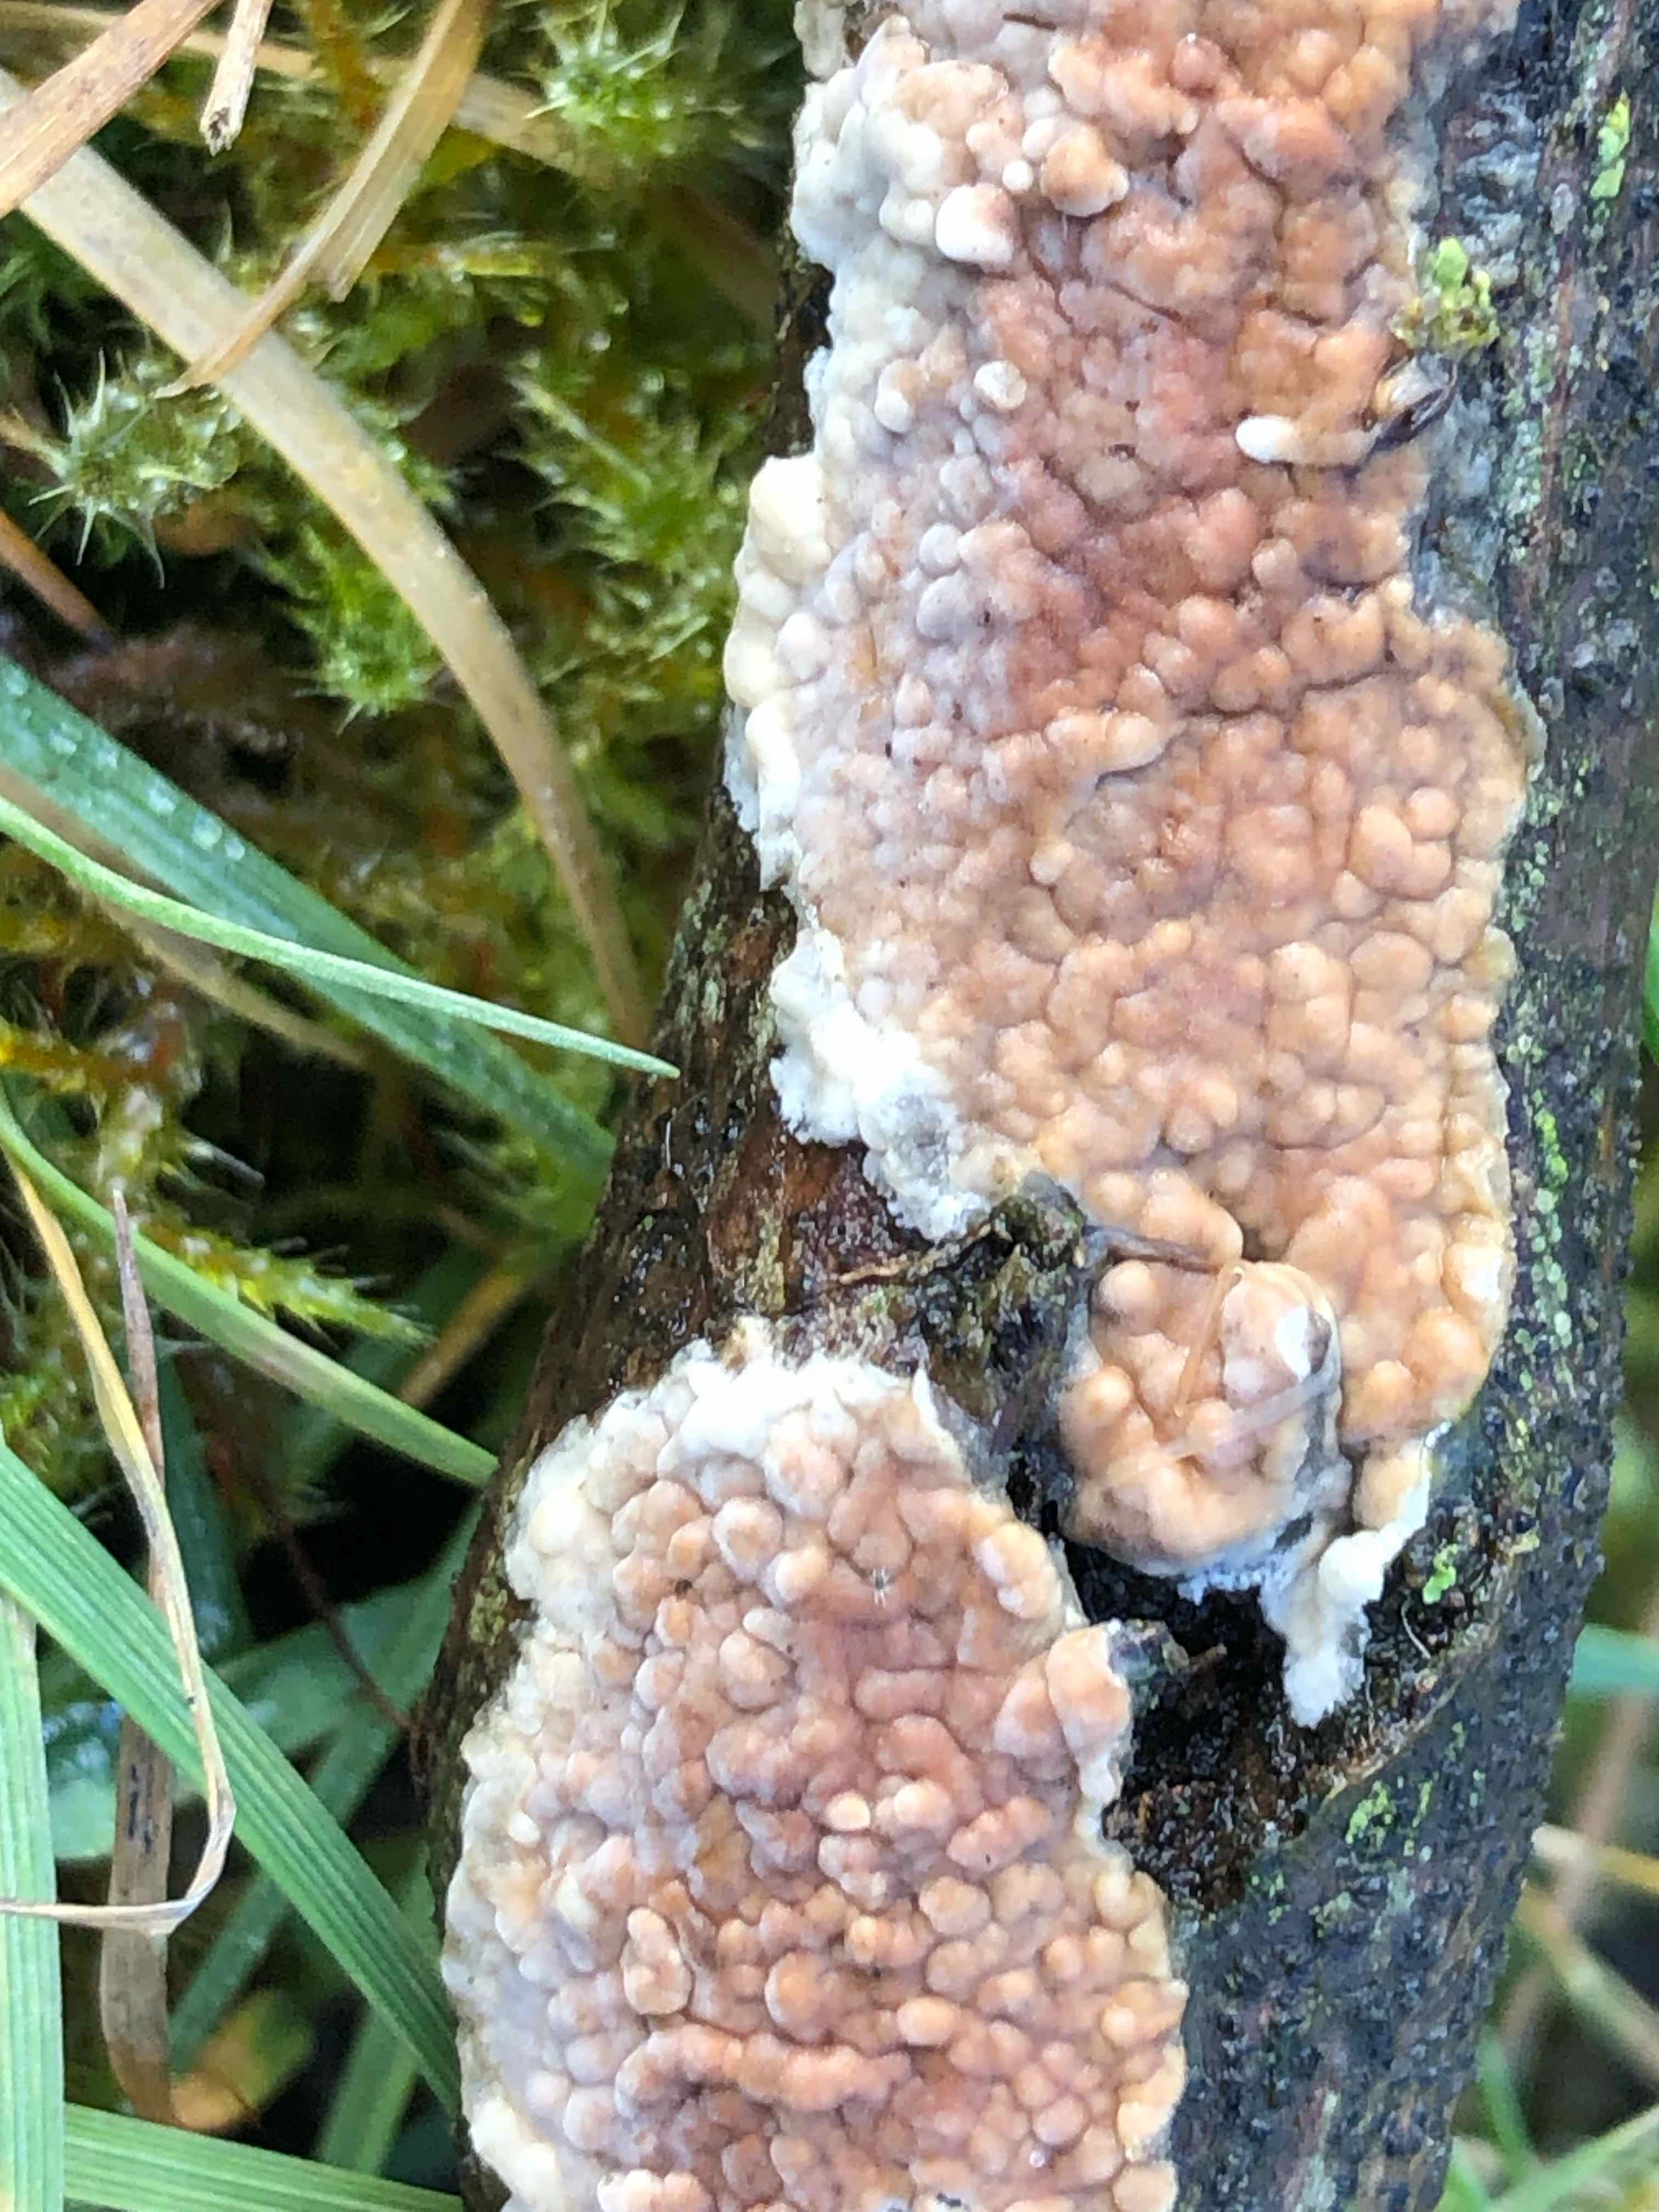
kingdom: Fungi
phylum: Basidiomycota
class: Agaricomycetes
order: Agaricales
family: Physalacriaceae
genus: Cylindrobasidium
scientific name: Cylindrobasidium evolvens
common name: sprækkehinde
